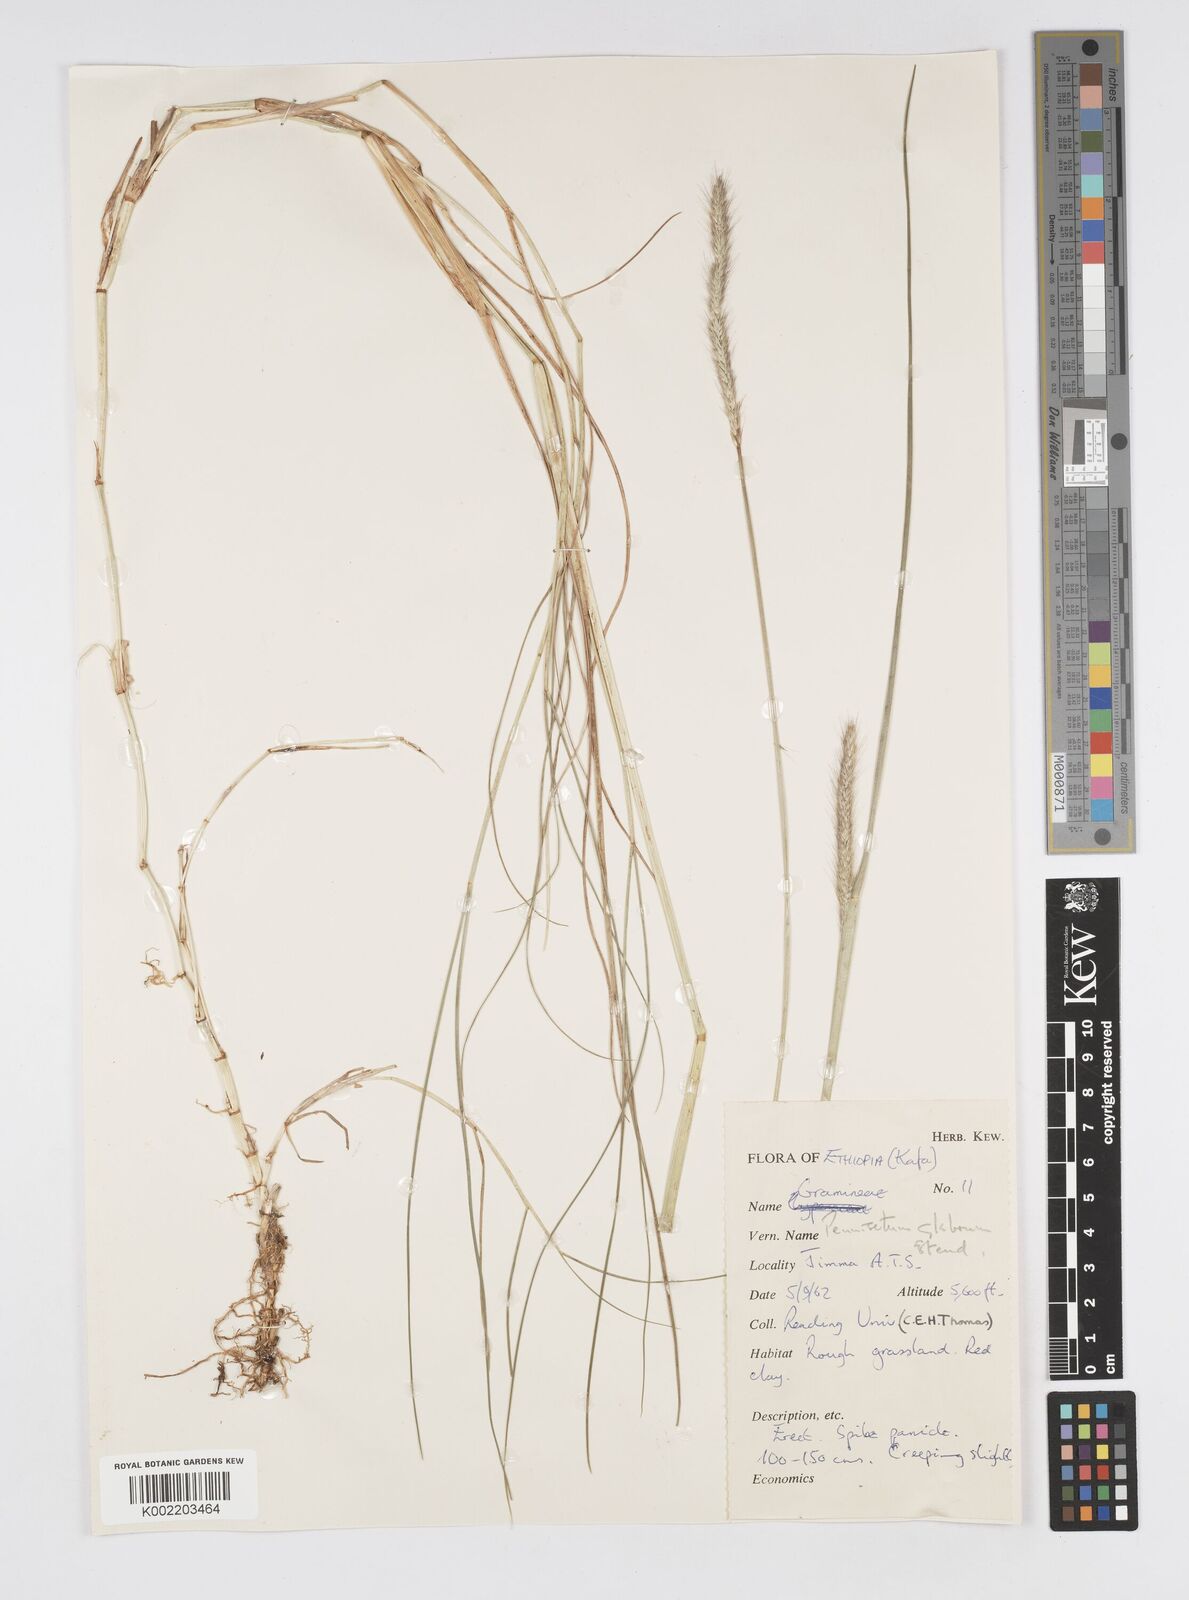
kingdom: Plantae
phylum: Tracheophyta
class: Liliopsida
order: Poales
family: Poaceae
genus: Cenchrus
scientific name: Cenchrus geniculatus
